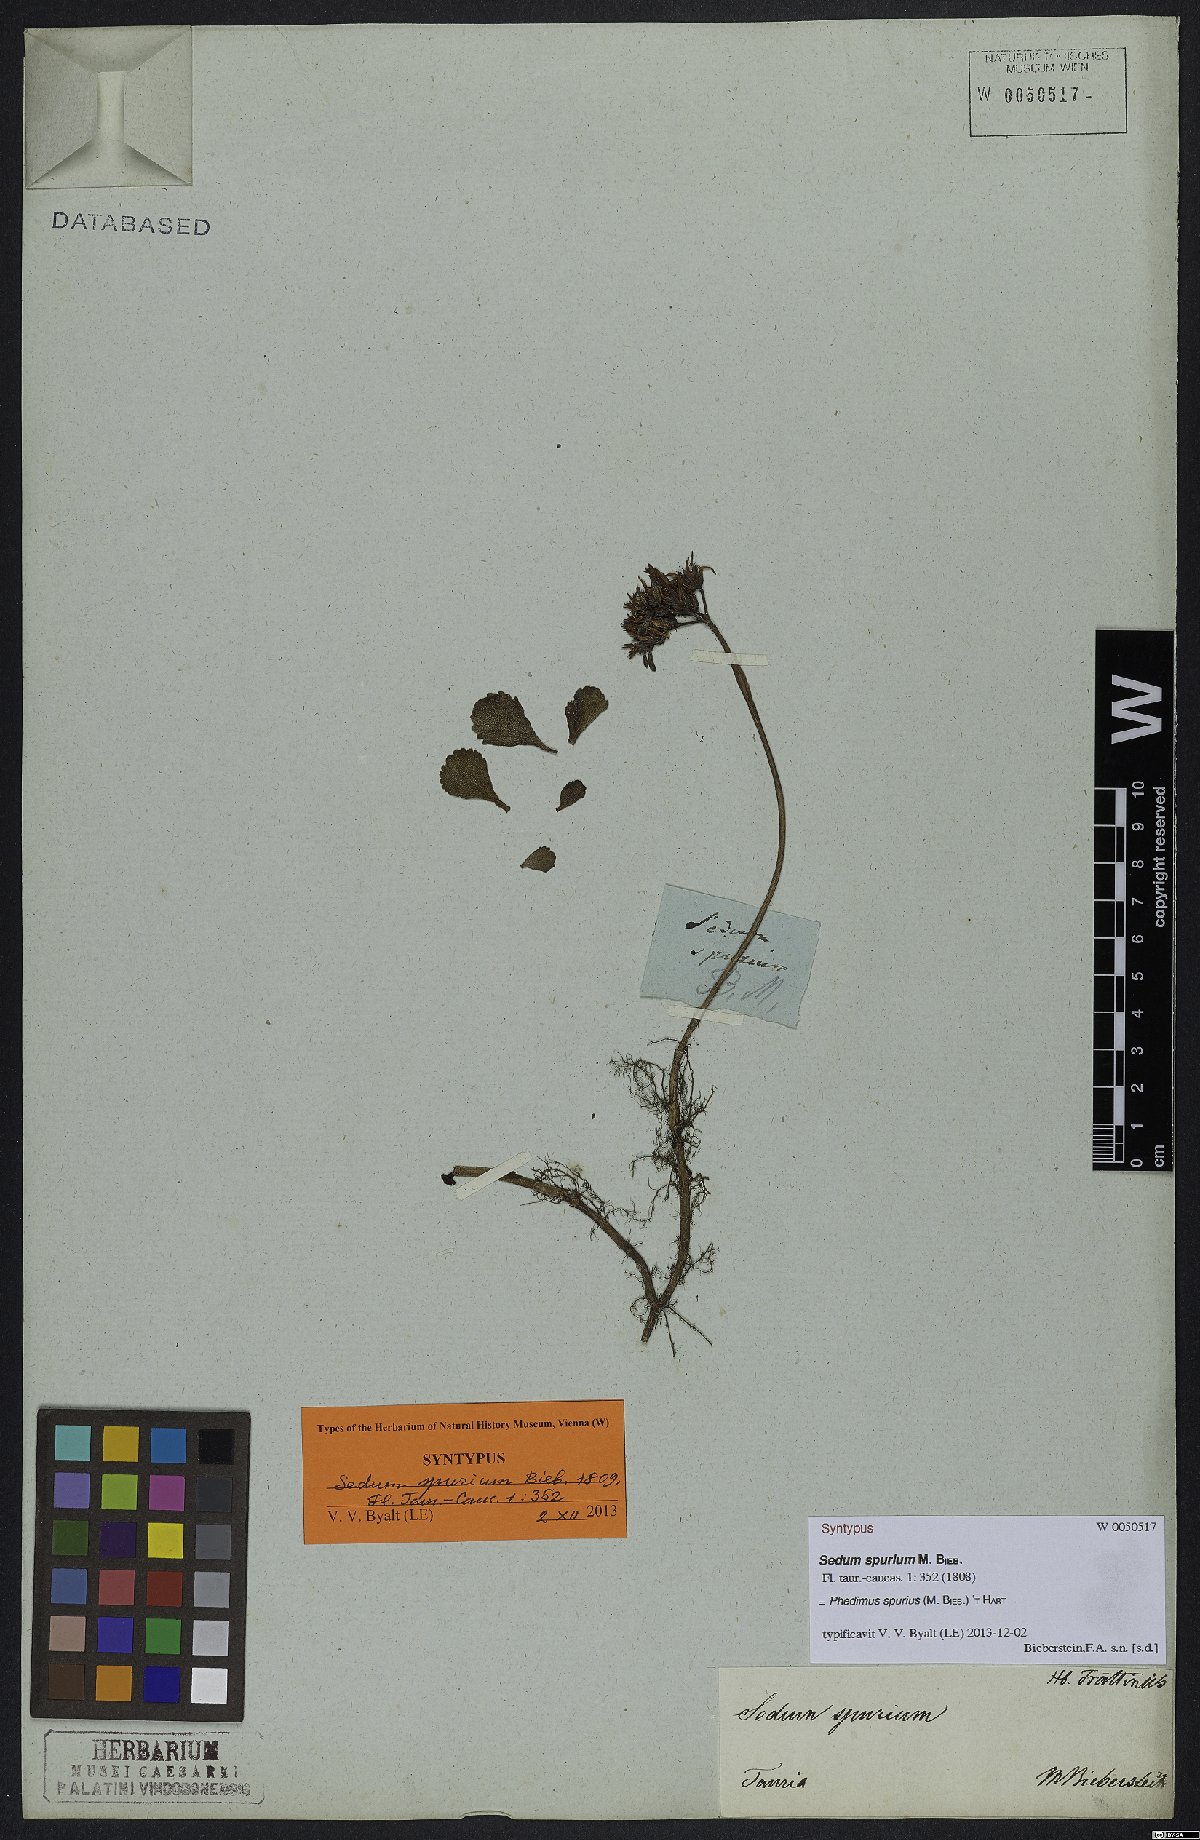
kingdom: Plantae
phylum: Tracheophyta
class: Magnoliopsida
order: Saxifragales
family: Crassulaceae
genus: Phedimus
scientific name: Phedimus spurius
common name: Caucasian stonecrop
